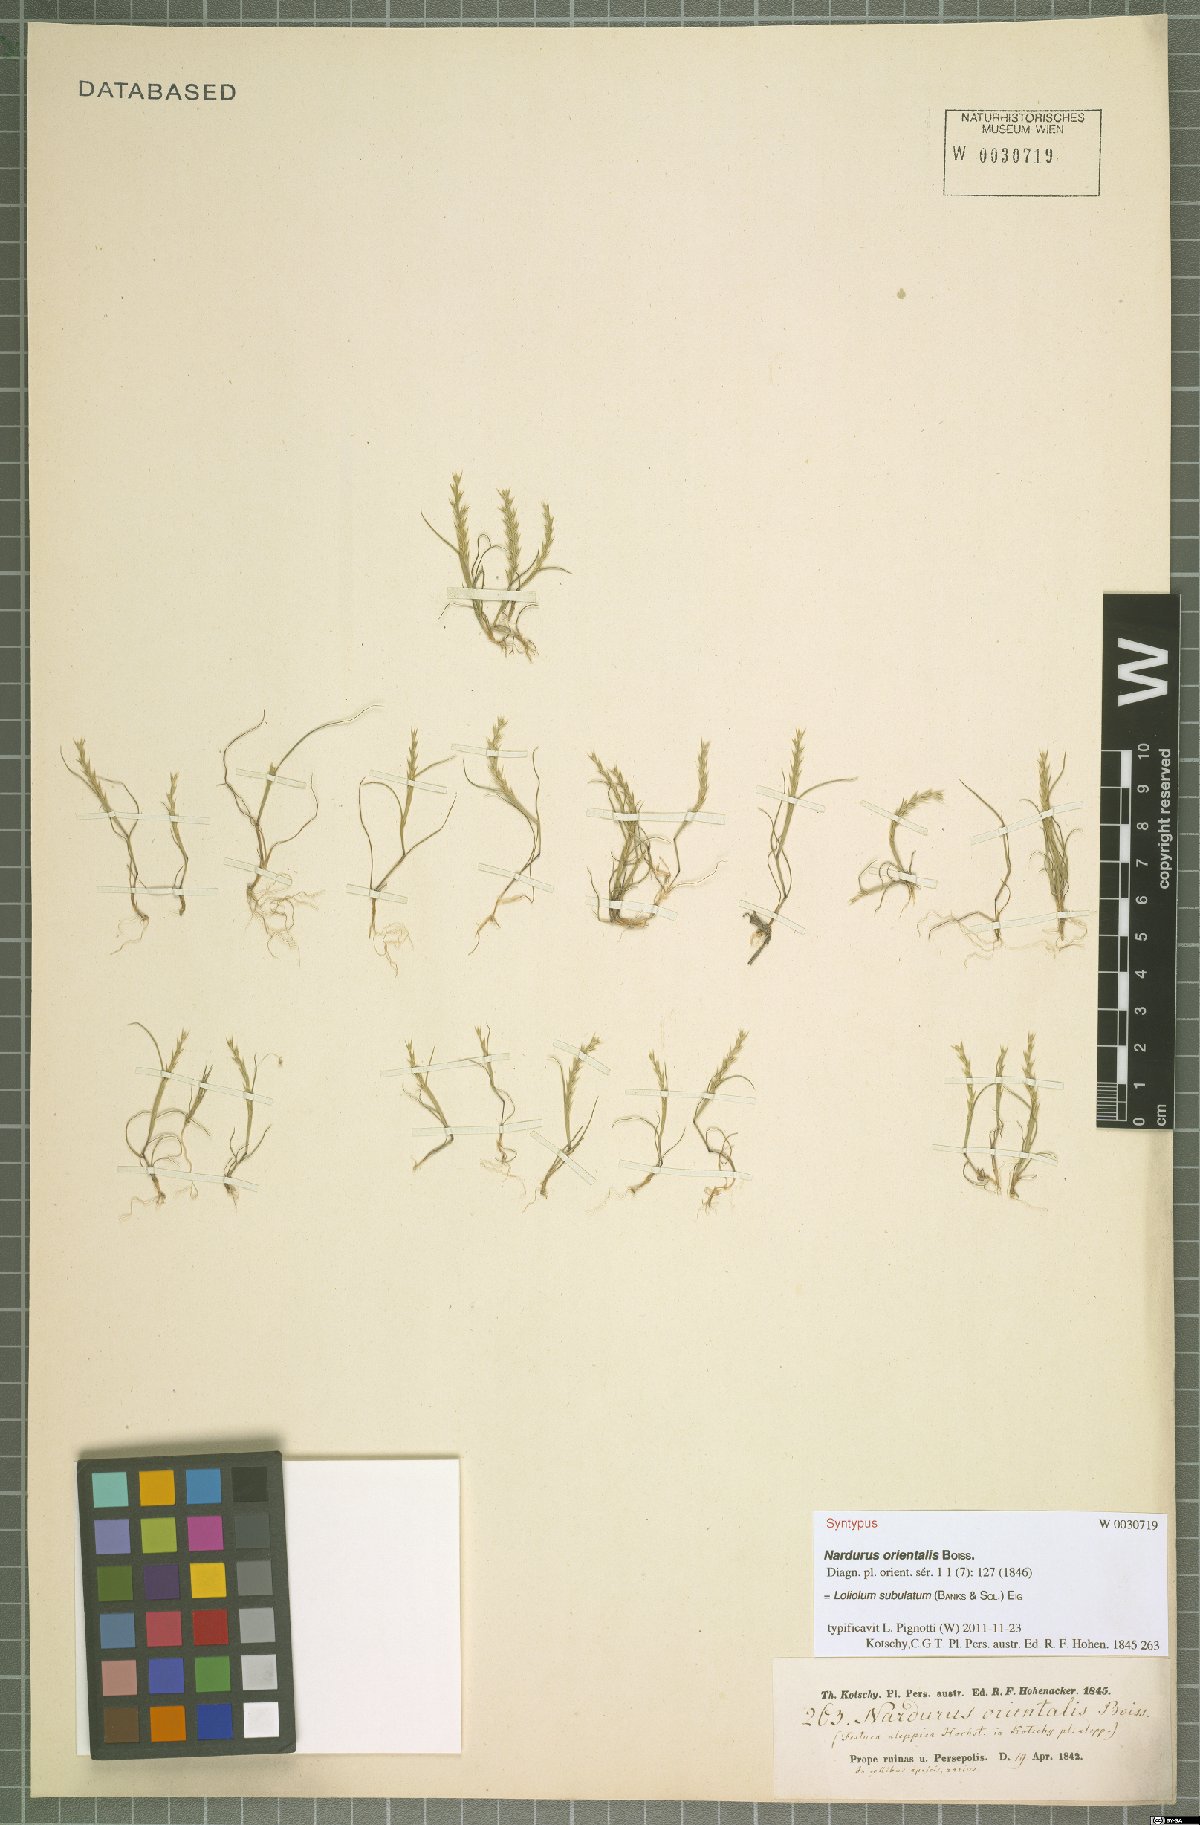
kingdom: Plantae
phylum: Tracheophyta
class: Liliopsida
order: Poales
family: Poaceae
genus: Festuca
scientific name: Festuca orientalis
